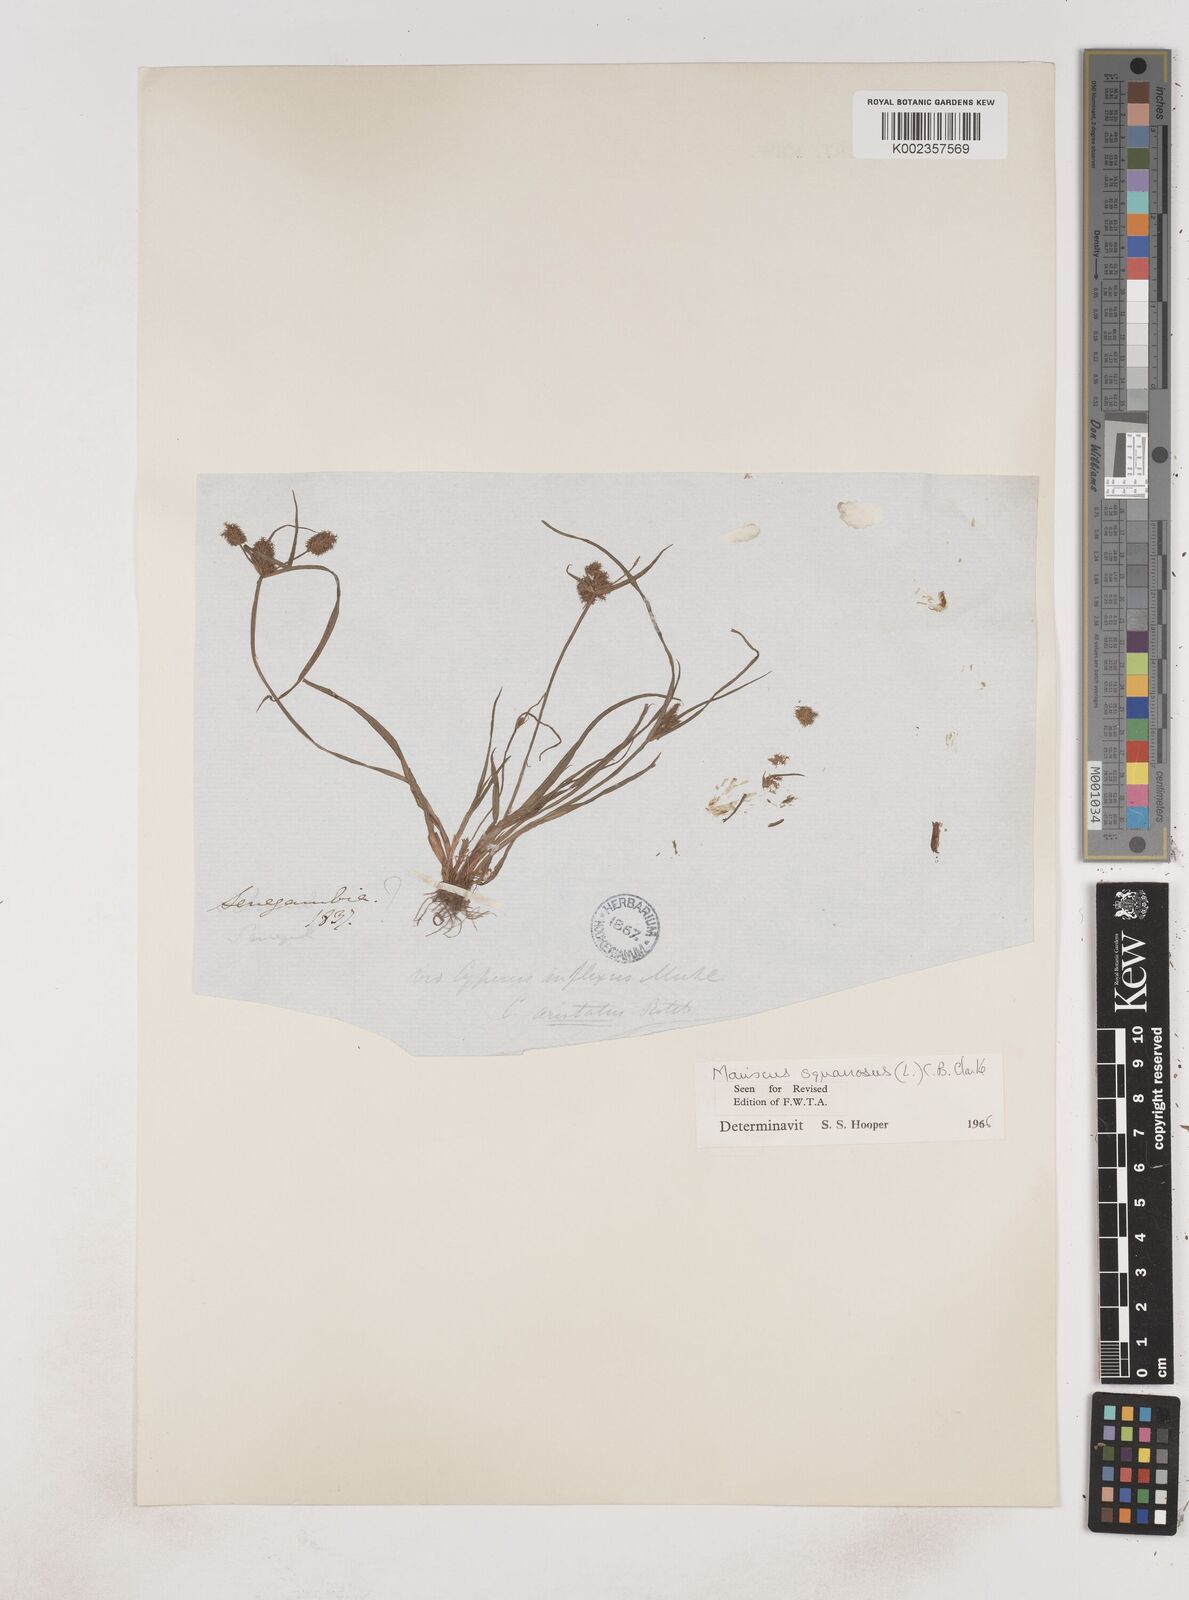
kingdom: Plantae
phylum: Tracheophyta
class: Liliopsida
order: Poales
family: Cyperaceae
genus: Cyperus
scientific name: Cyperus squarrosus
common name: Awned cyperus
